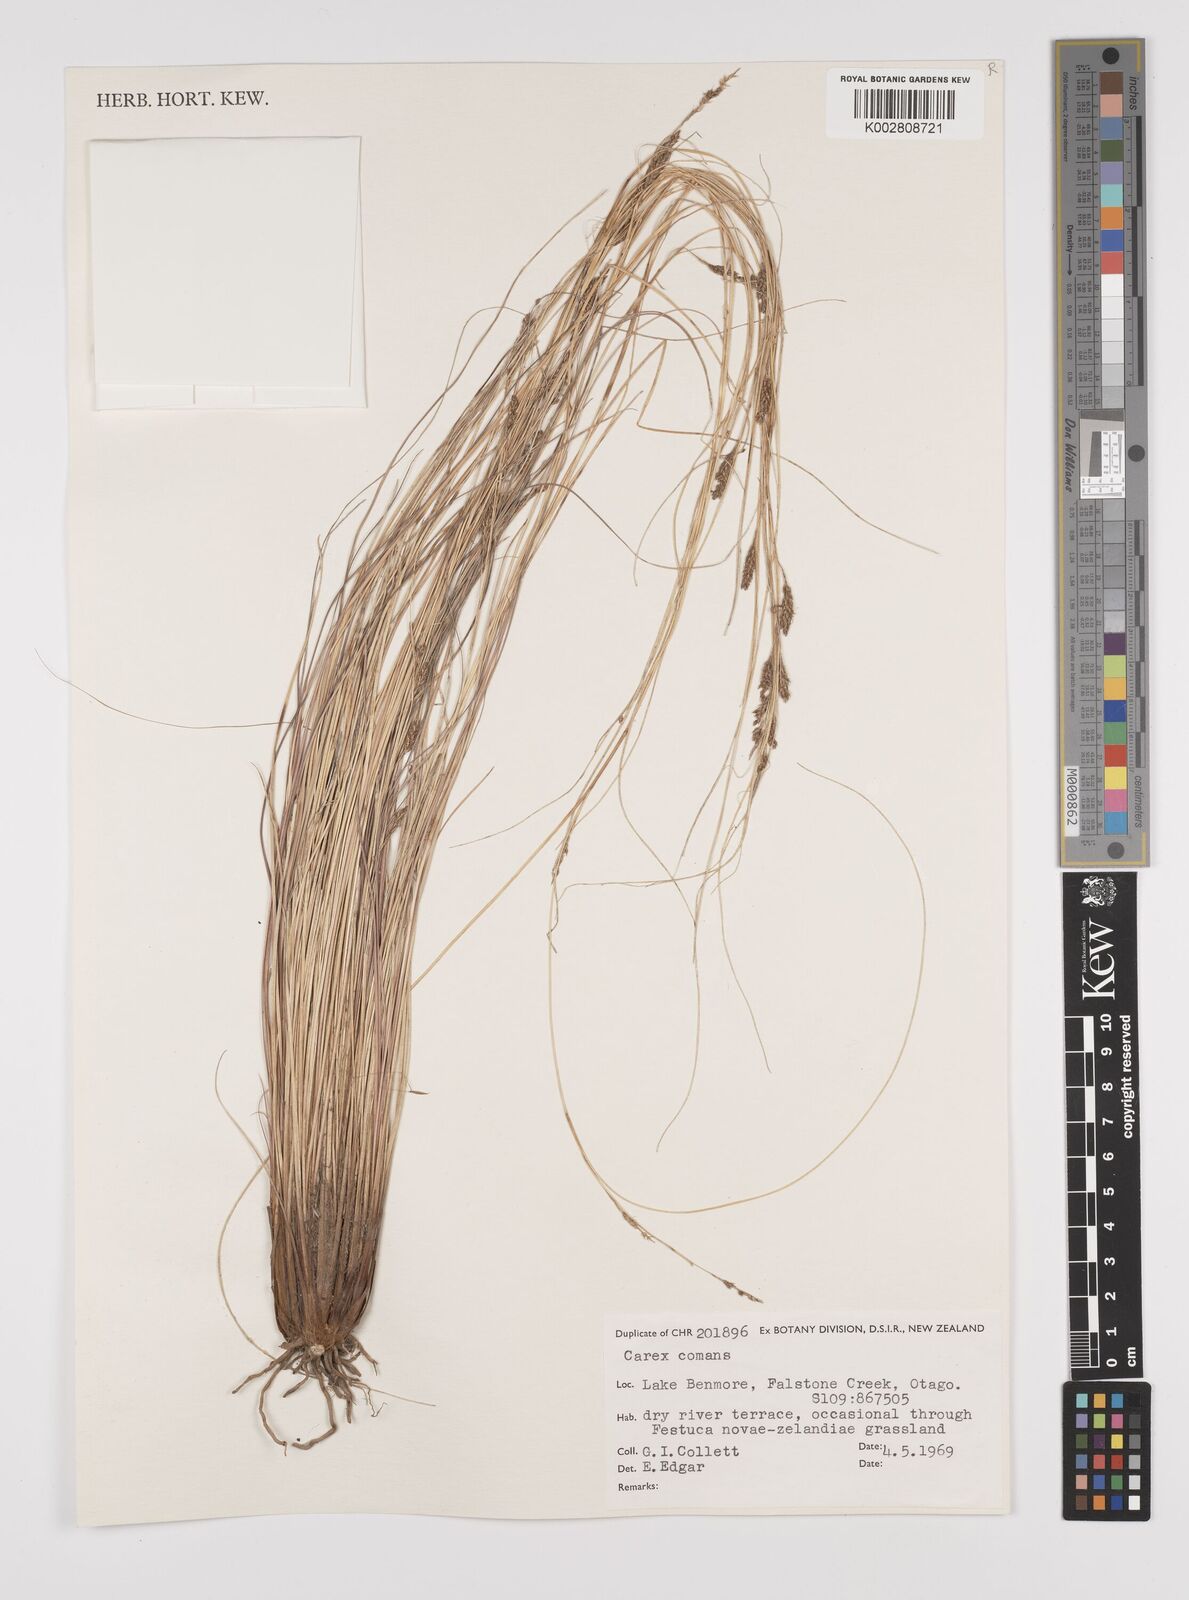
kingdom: Plantae
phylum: Tracheophyta
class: Liliopsida
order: Poales
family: Cyperaceae
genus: Carex
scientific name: Carex comans
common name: Longwood tussock
